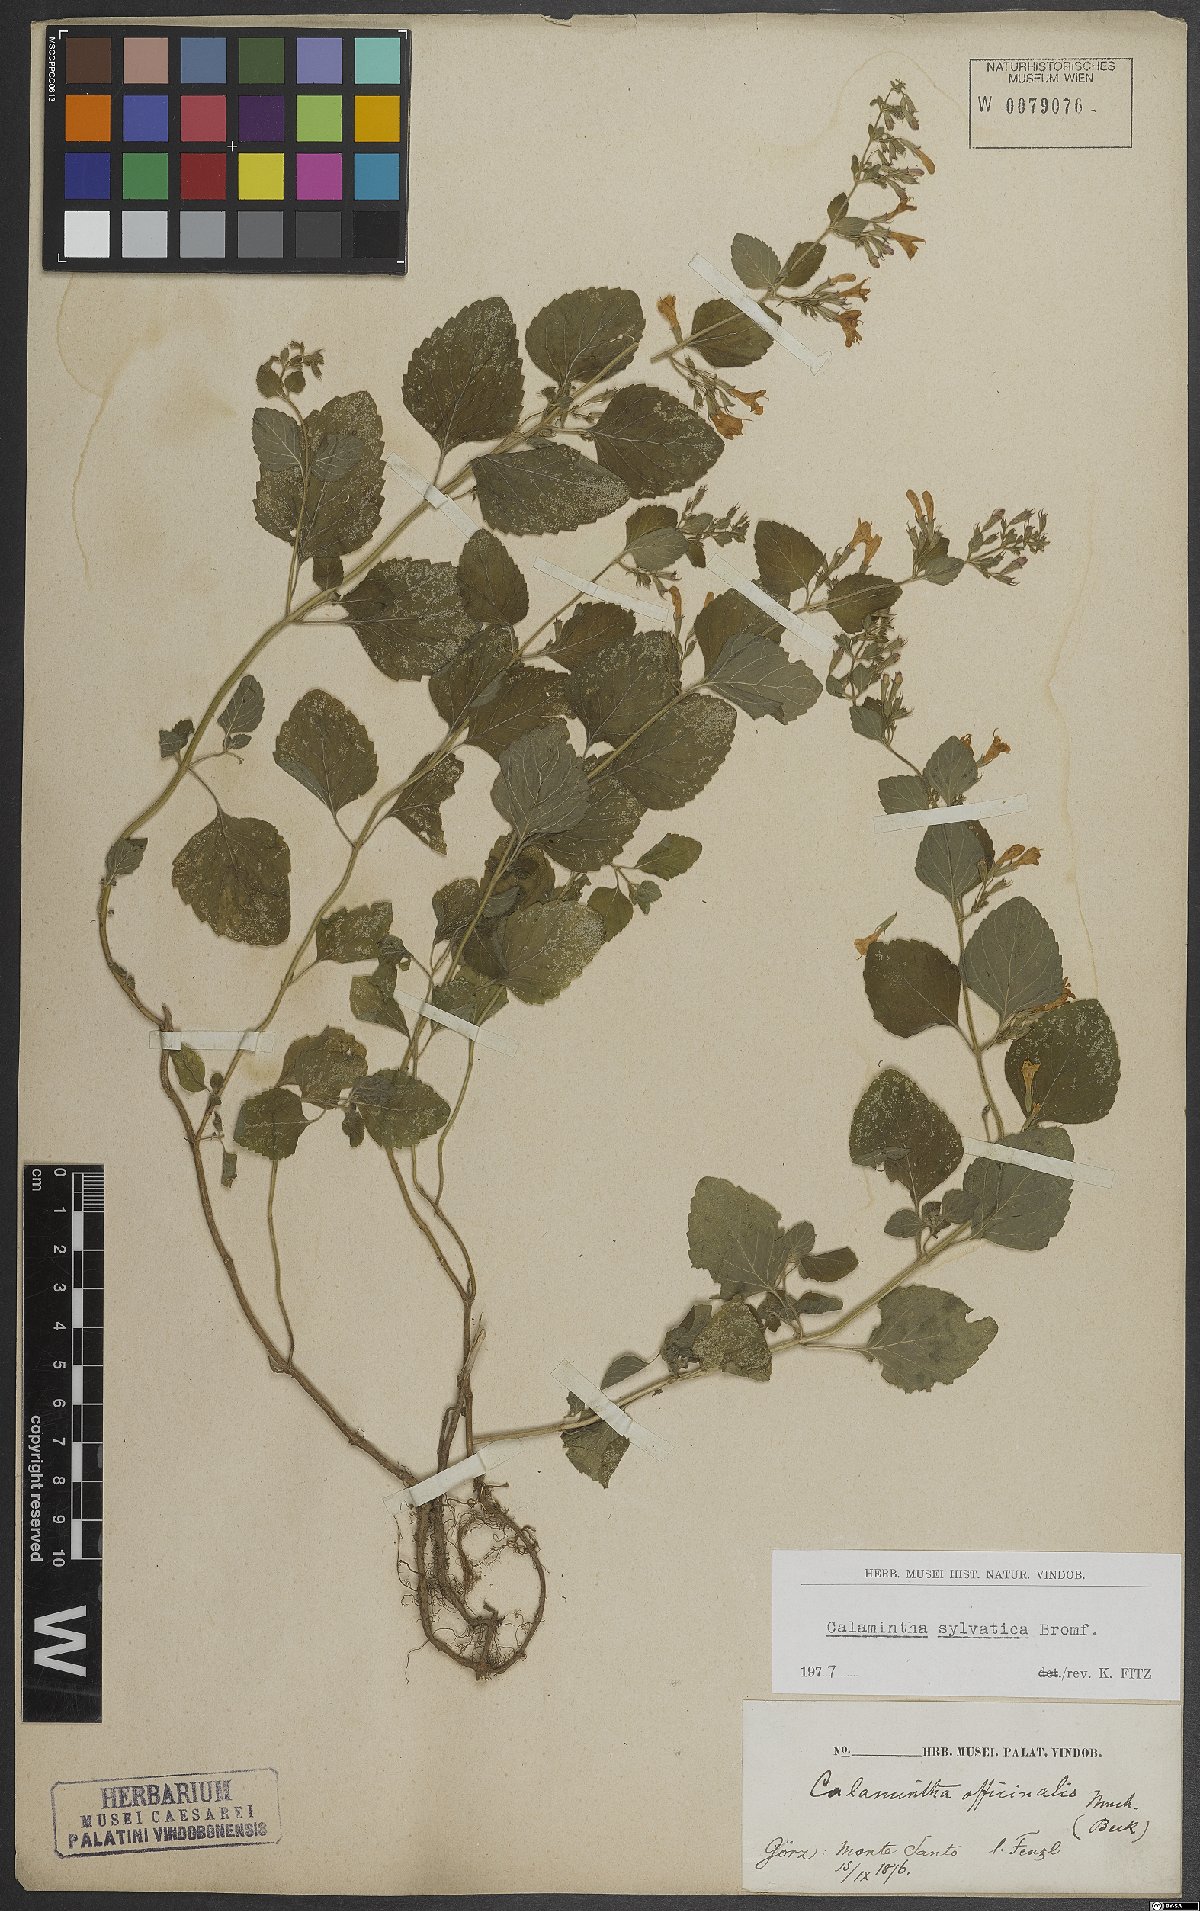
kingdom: Plantae
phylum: Tracheophyta
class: Magnoliopsida
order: Lamiales
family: Lamiaceae
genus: Clinopodium
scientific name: Clinopodium menthifolium
